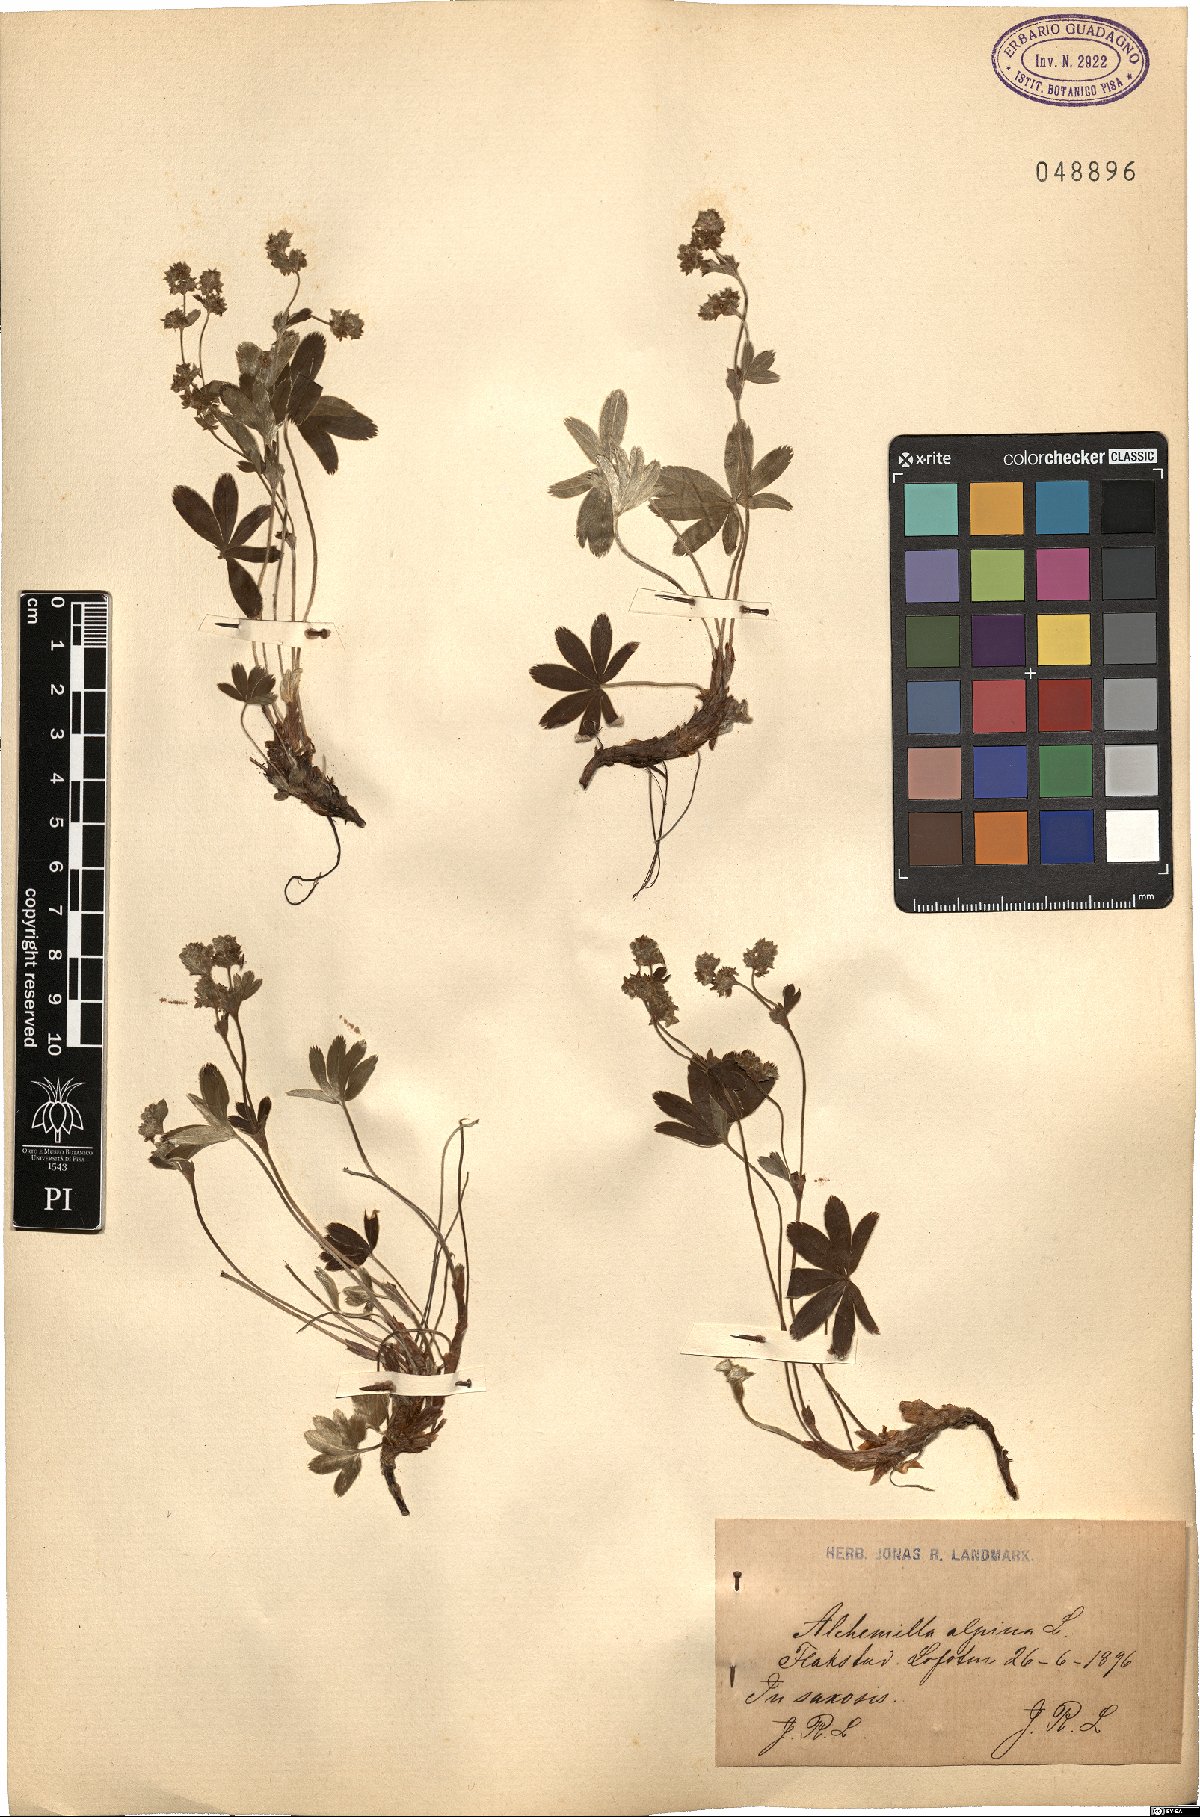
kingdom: Plantae
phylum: Tracheophyta
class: Magnoliopsida
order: Rosales
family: Rosaceae
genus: Alchemilla
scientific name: Alchemilla alpina
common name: Alpine lady's-mantle
